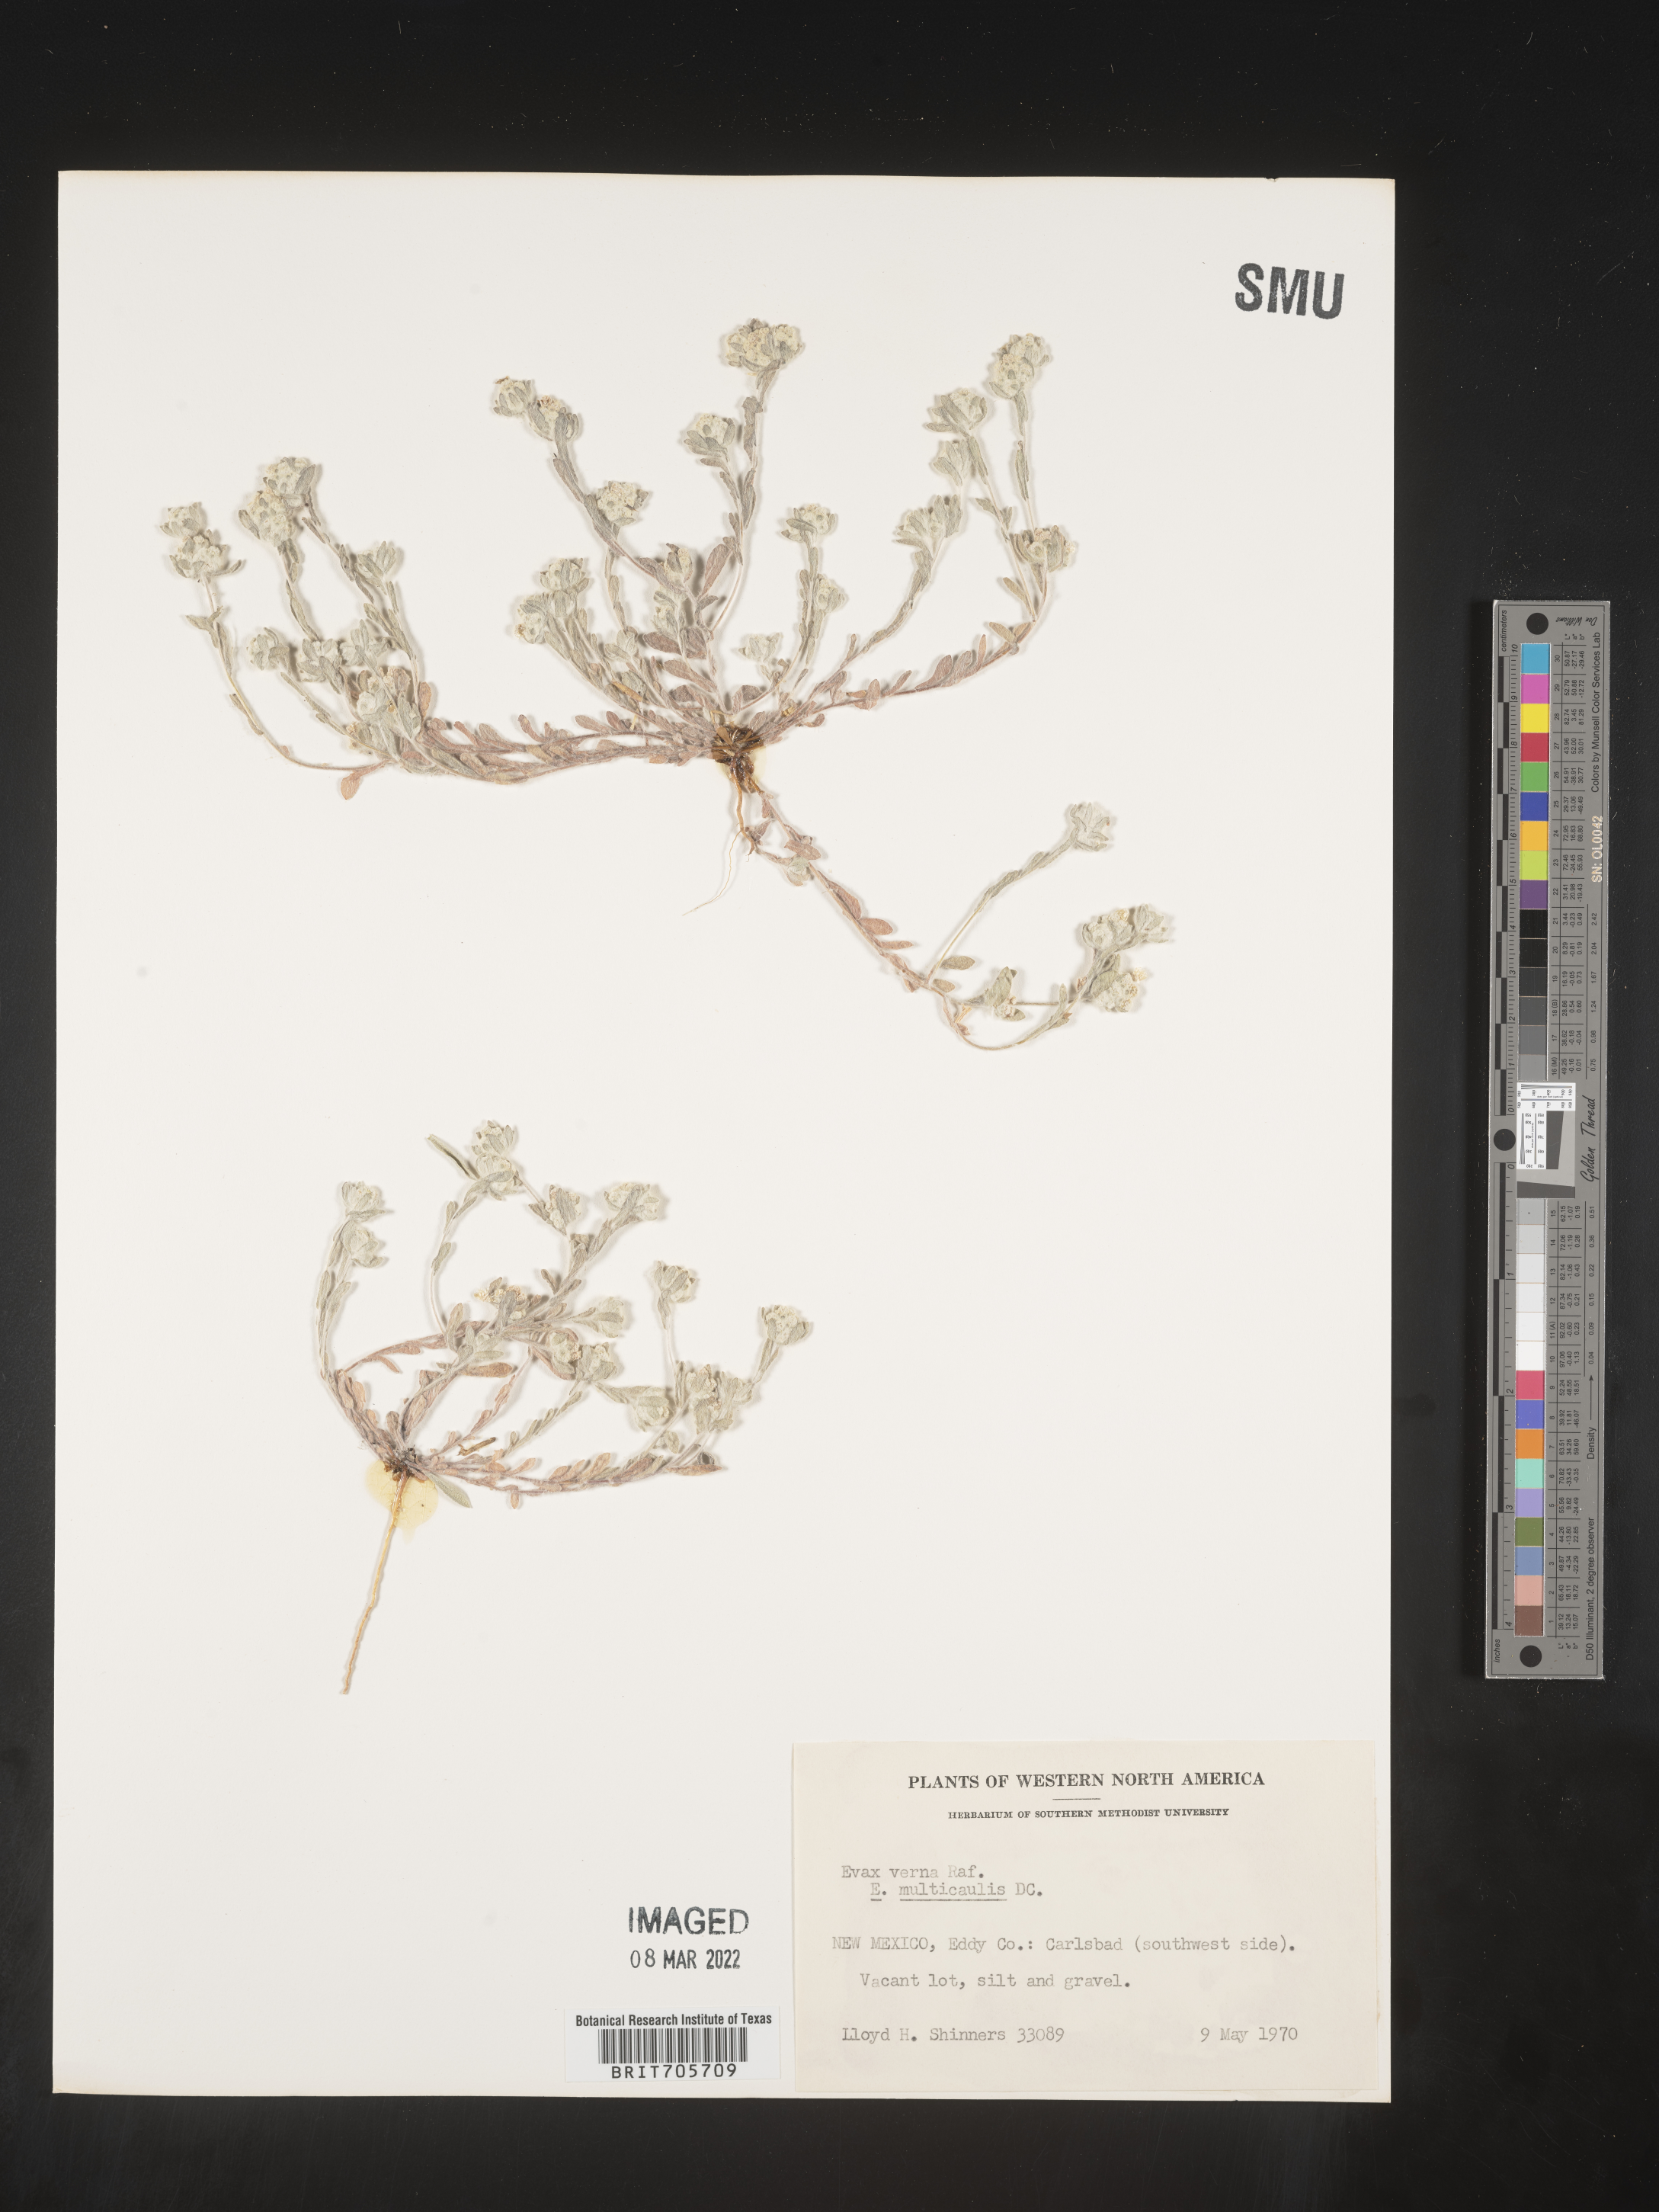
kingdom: Plantae
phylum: Tracheophyta
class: Magnoliopsida
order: Asterales
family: Asteraceae
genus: Diaperia
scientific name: Diaperia verna
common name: Many-stem rabbit-tobacco
